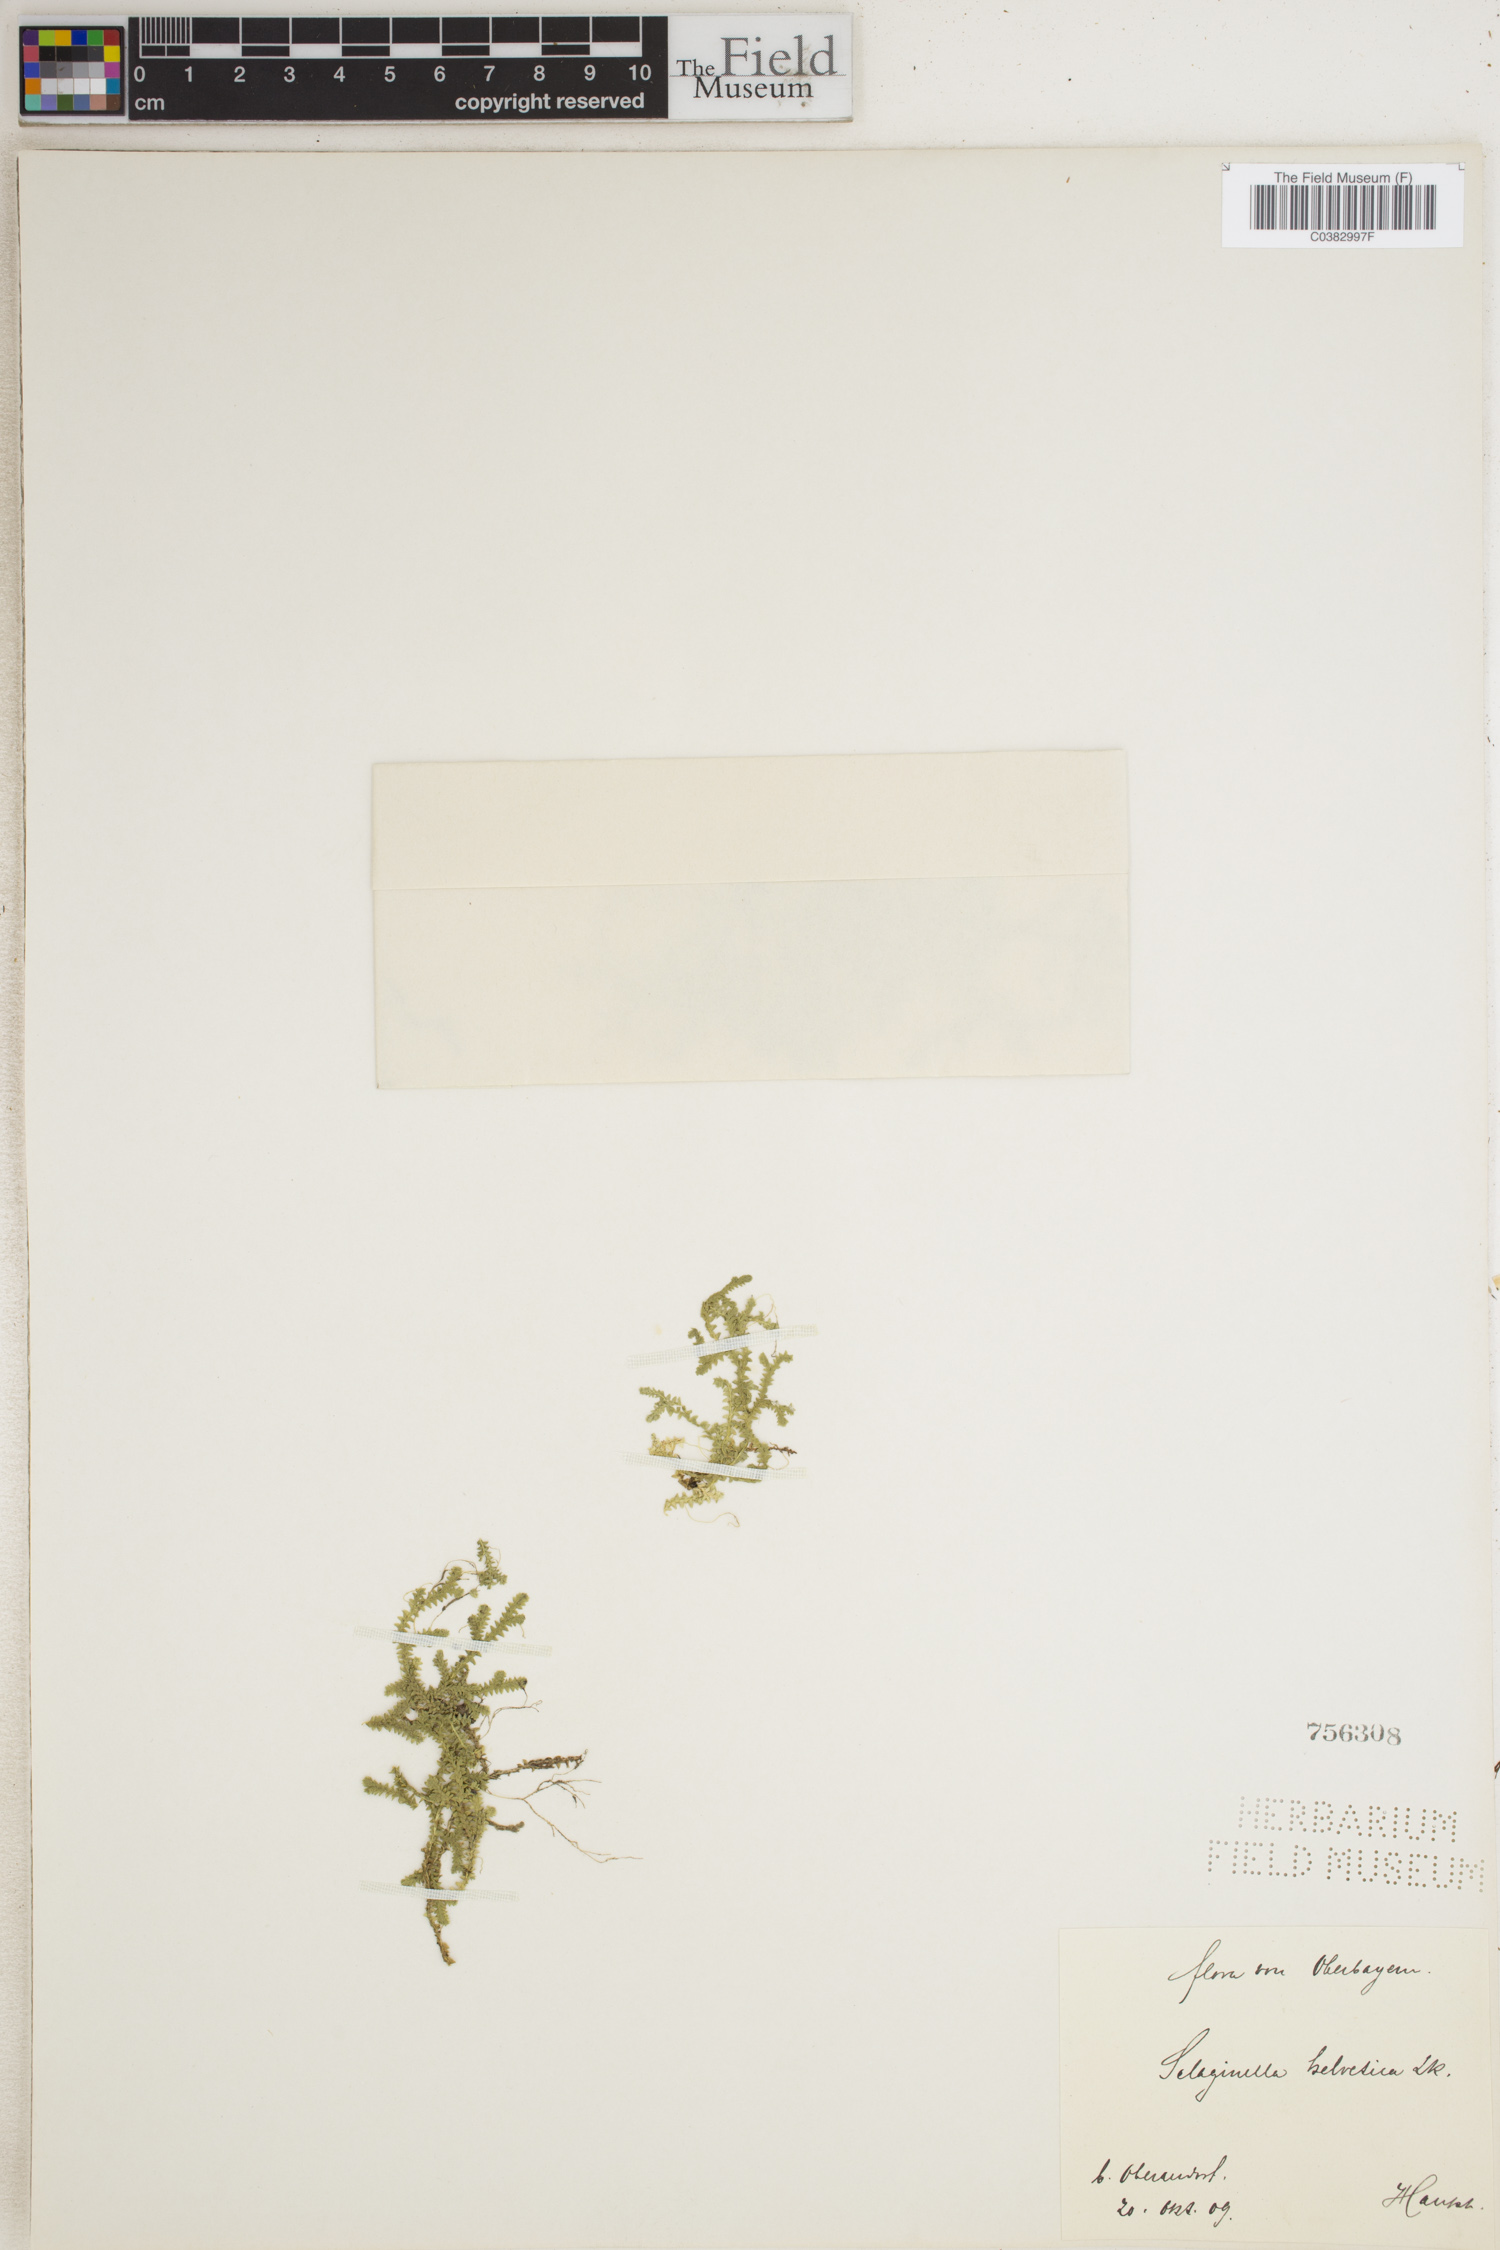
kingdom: Plantae
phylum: Tracheophyta
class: Lycopodiopsida
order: Selaginellales
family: Selaginellaceae
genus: Selaginella
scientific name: Selaginella helvetica
